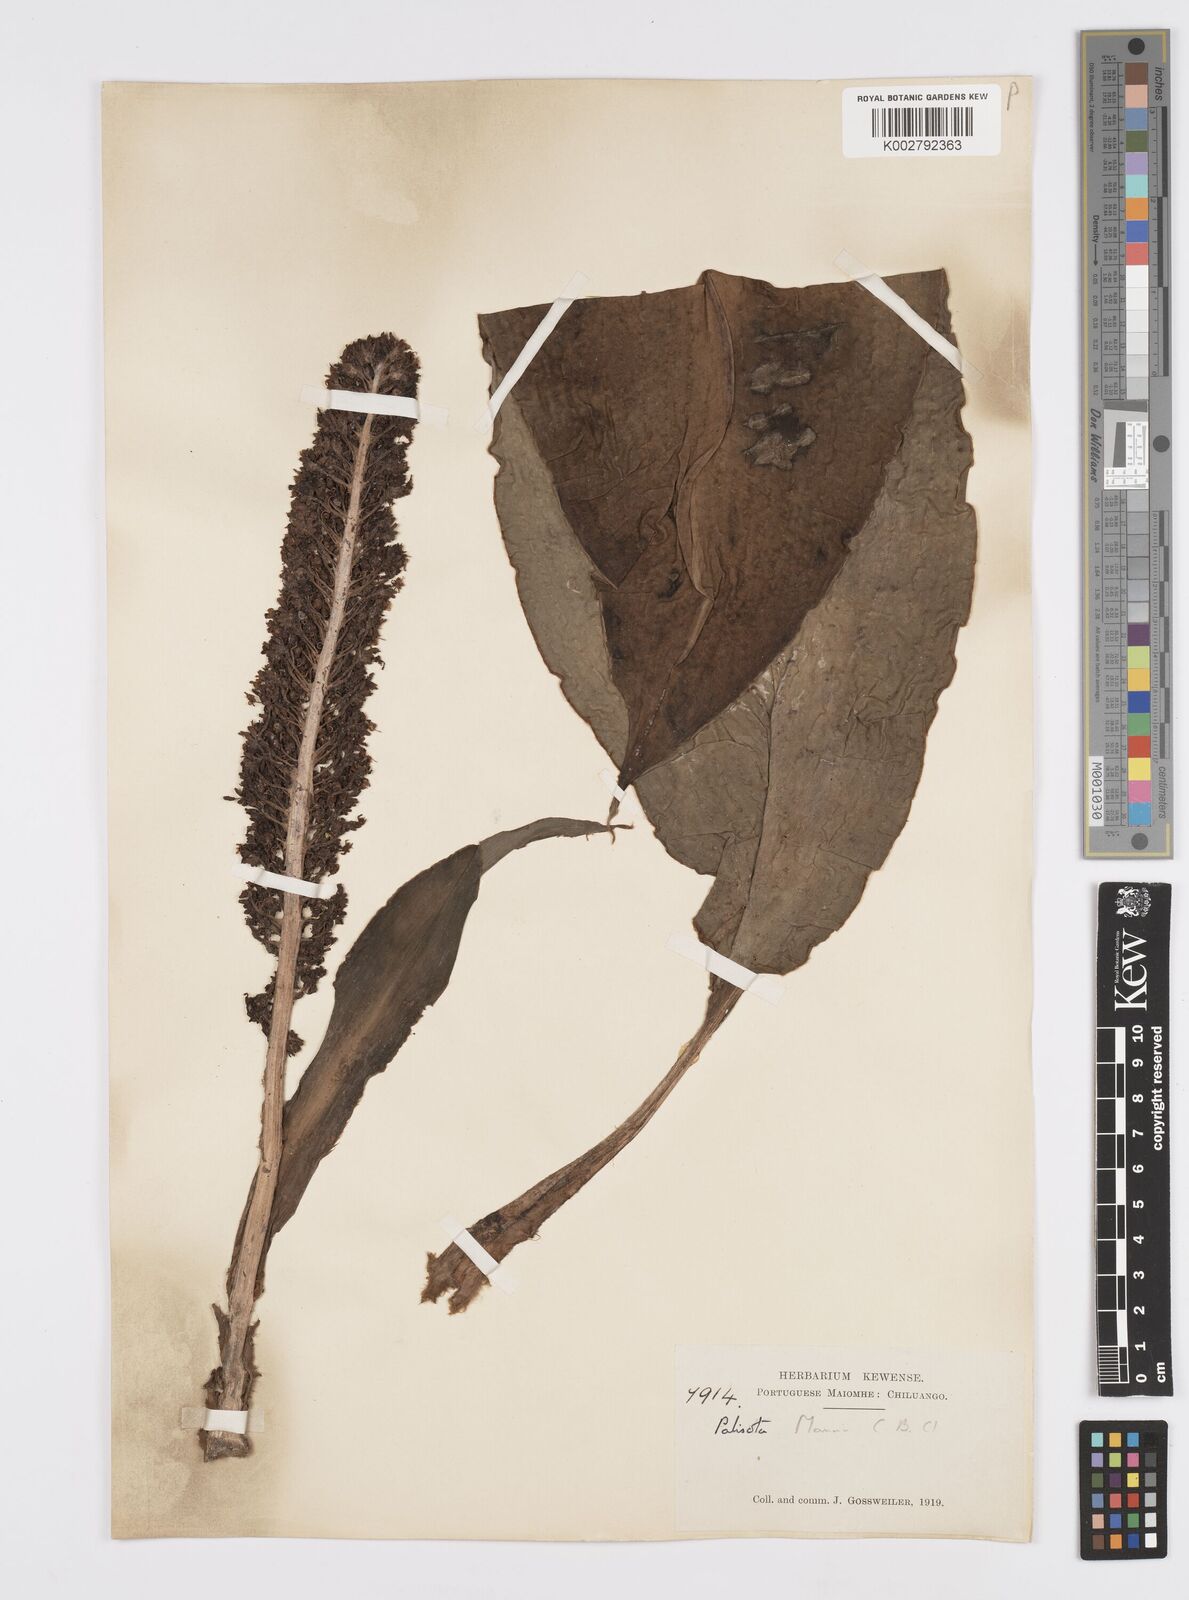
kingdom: Plantae
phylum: Tracheophyta
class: Liliopsida
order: Commelinales
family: Commelinaceae
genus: Palisota
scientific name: Palisota mannii
